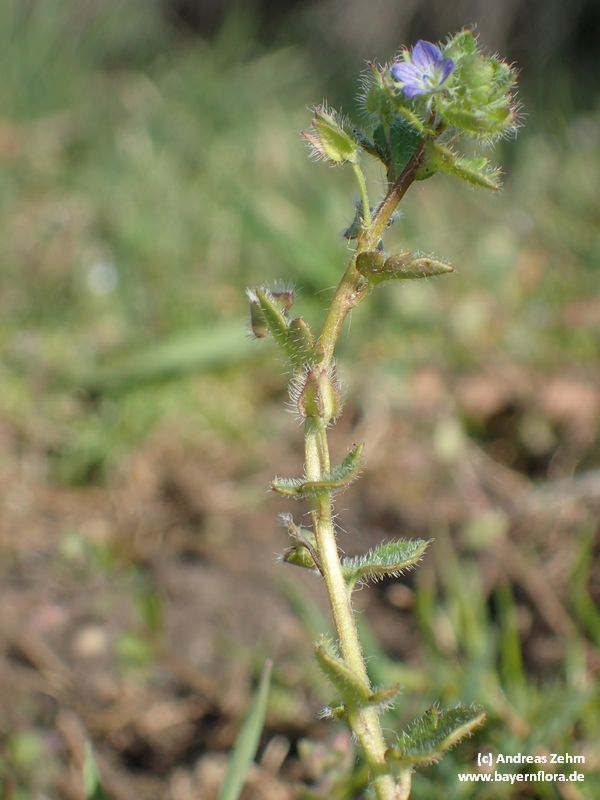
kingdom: Plantae
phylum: Tracheophyta
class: Magnoliopsida
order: Lamiales
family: Plantaginaceae
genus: Veronica
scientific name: Veronica sublobata
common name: False ivy-leaved speedwell
